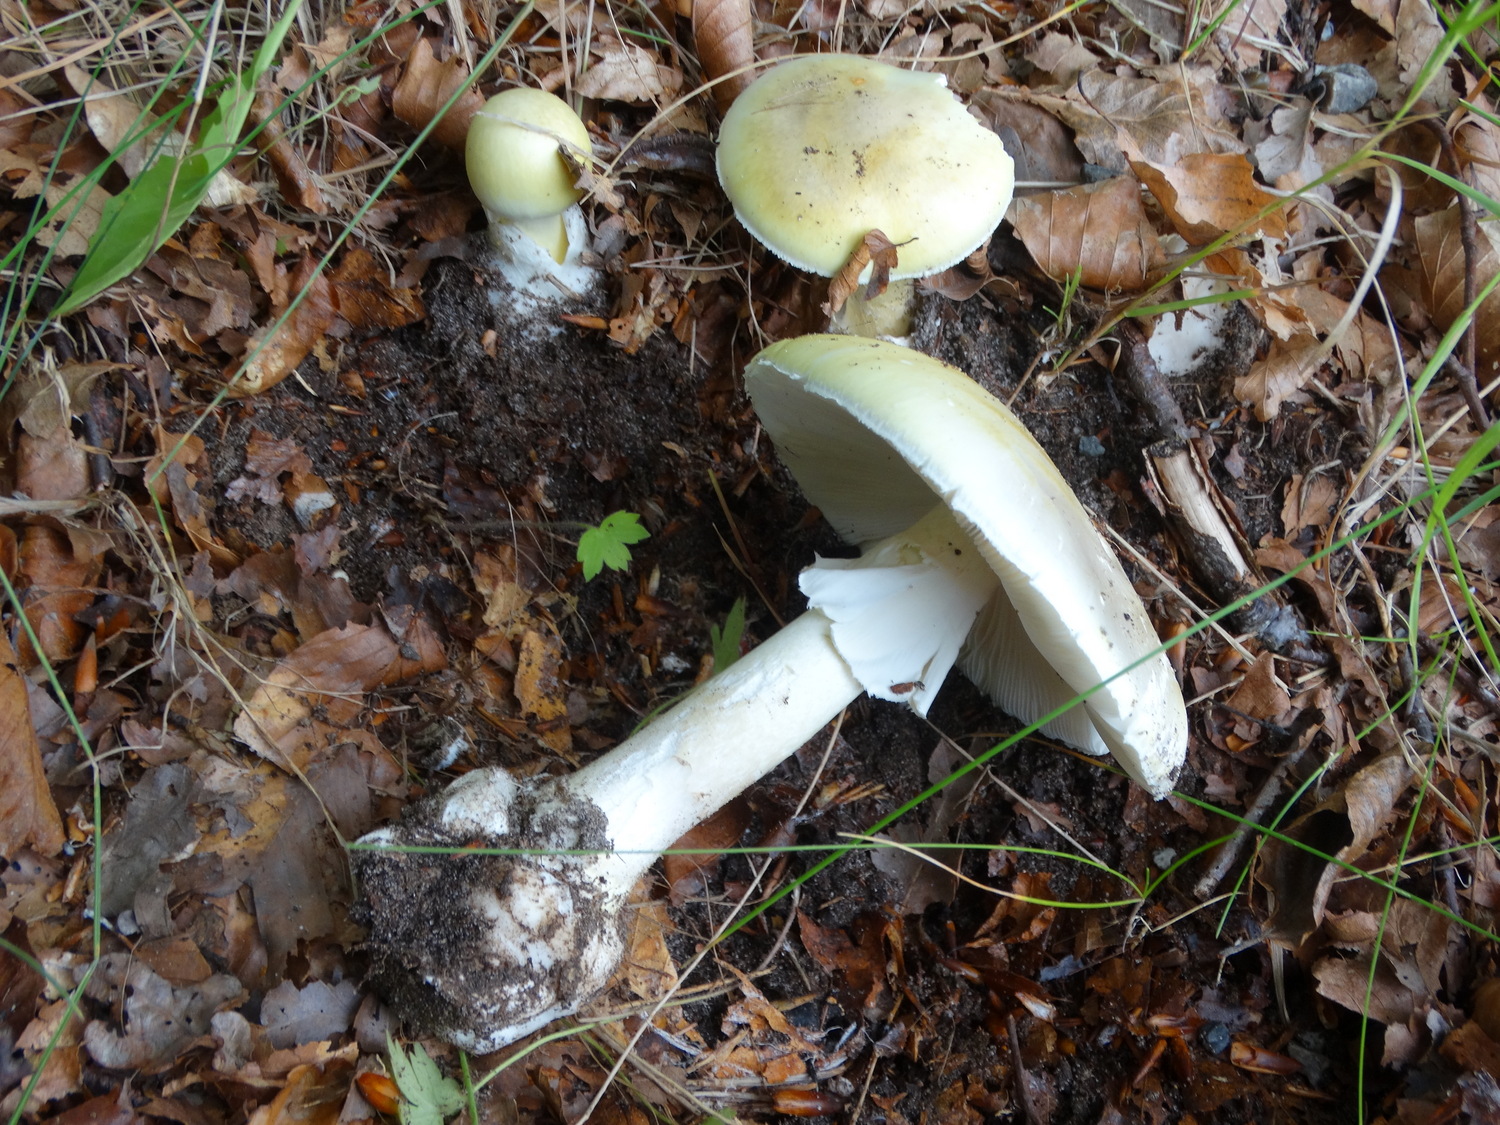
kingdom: Fungi
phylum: Basidiomycota
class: Agaricomycetes
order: Agaricales
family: Amanitaceae
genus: Amanita
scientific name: Amanita phalloides
